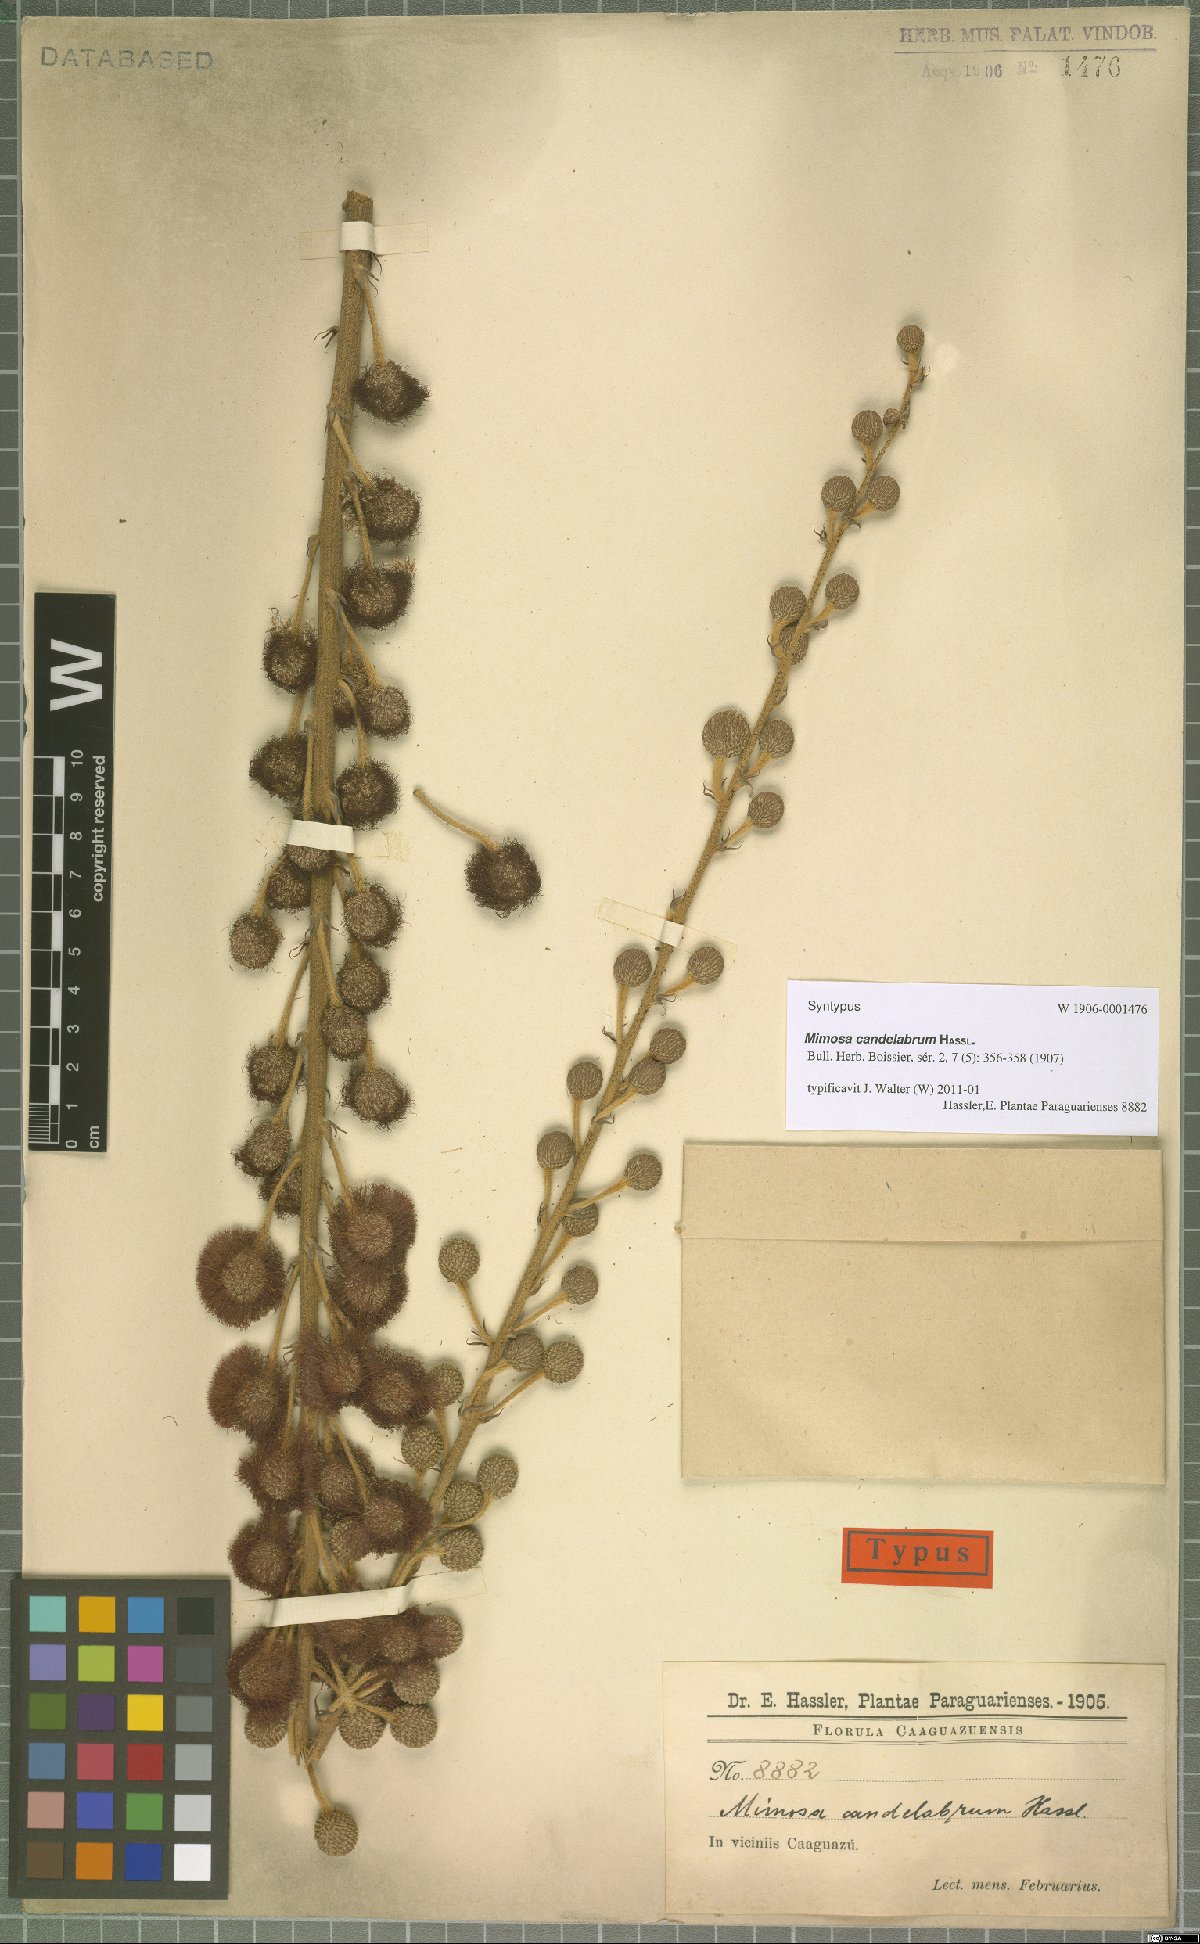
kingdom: Plantae
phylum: Tracheophyta
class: Magnoliopsida
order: Fabales
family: Fabaceae
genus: Mimosa
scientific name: Mimosa candelabrum
